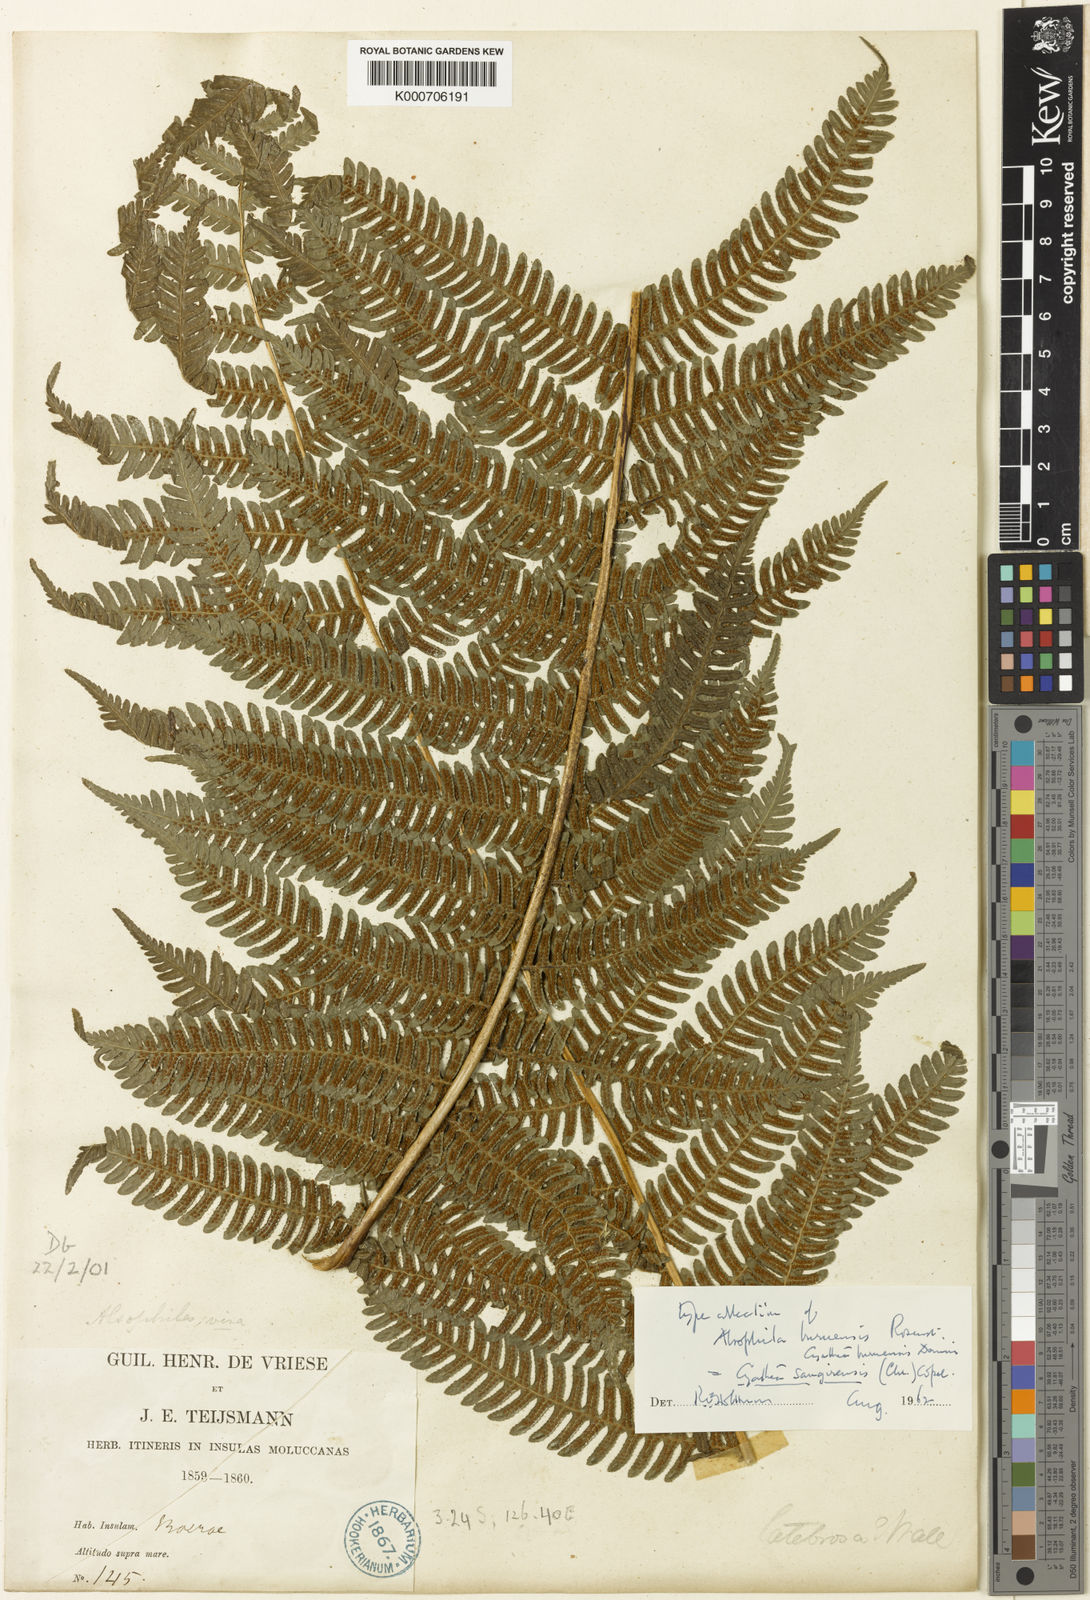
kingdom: Plantae
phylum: Tracheophyta
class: Polypodiopsida
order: Cyatheales
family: Cyatheaceae
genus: Sphaeropteris
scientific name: Sphaeropteris felina
